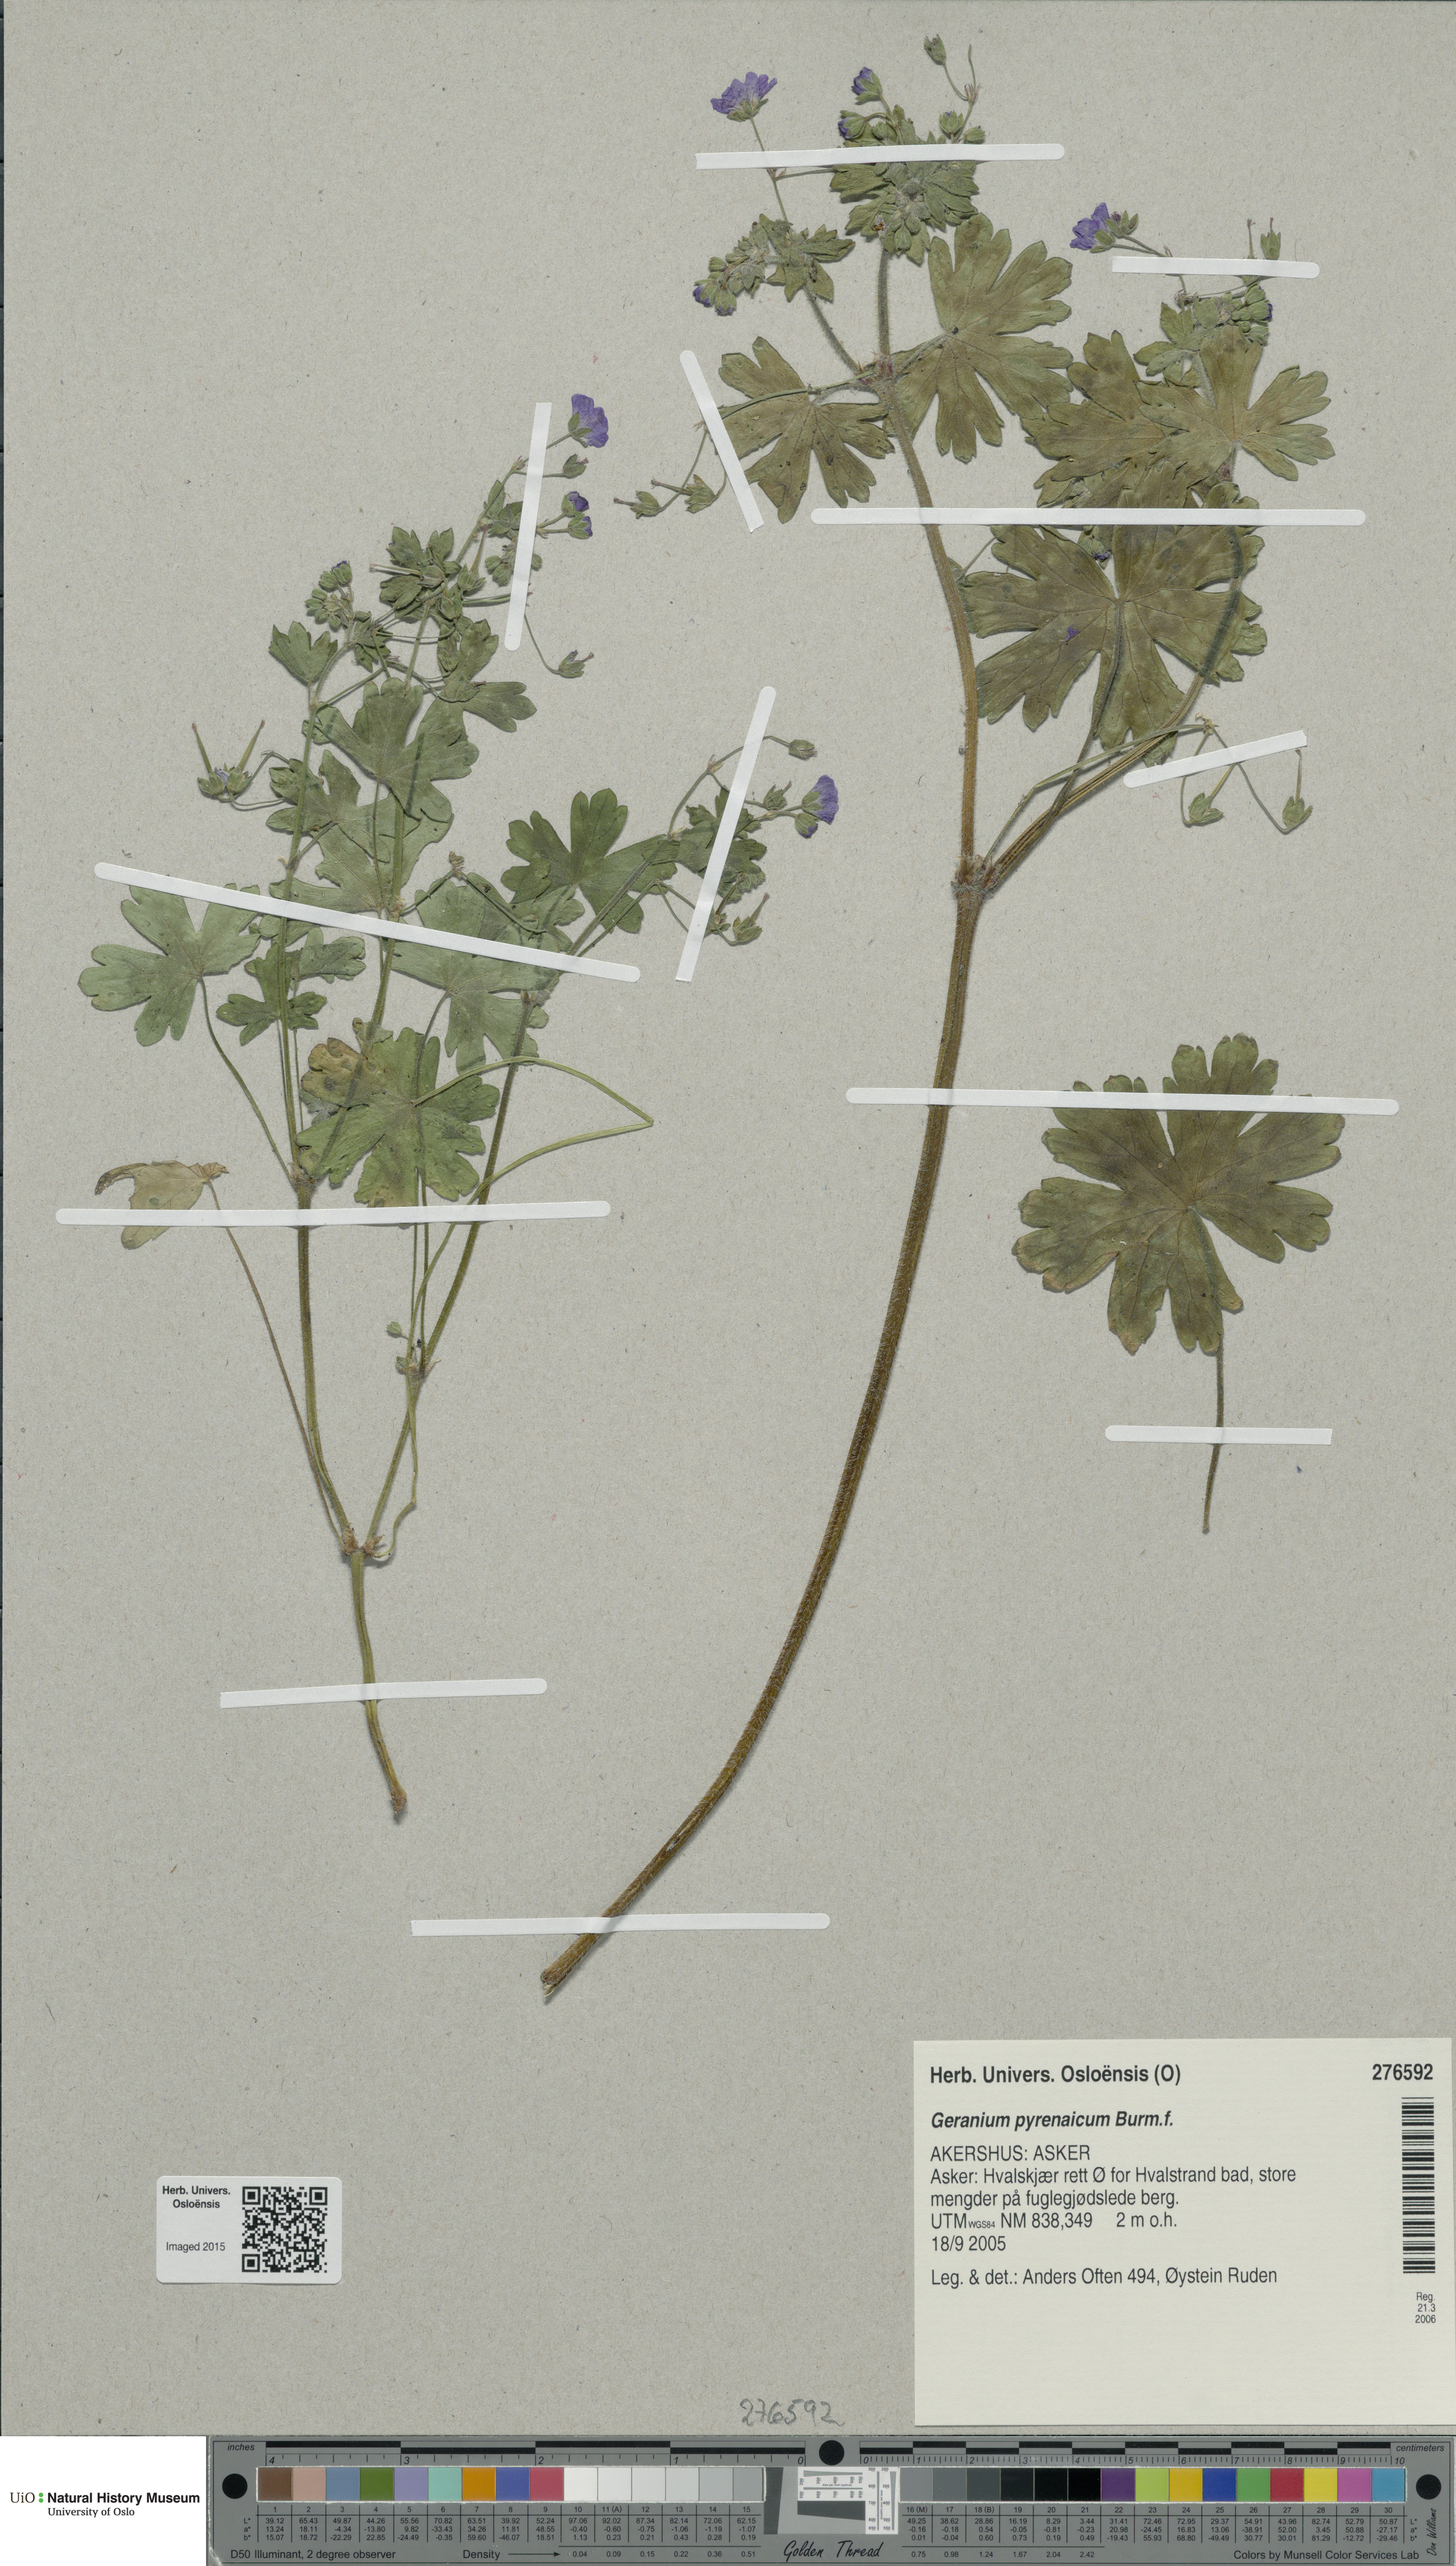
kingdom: Plantae
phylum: Tracheophyta
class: Magnoliopsida
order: Geraniales
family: Geraniaceae
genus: Geranium
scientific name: Geranium pyrenaicum
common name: Hedgerow crane's-bill
